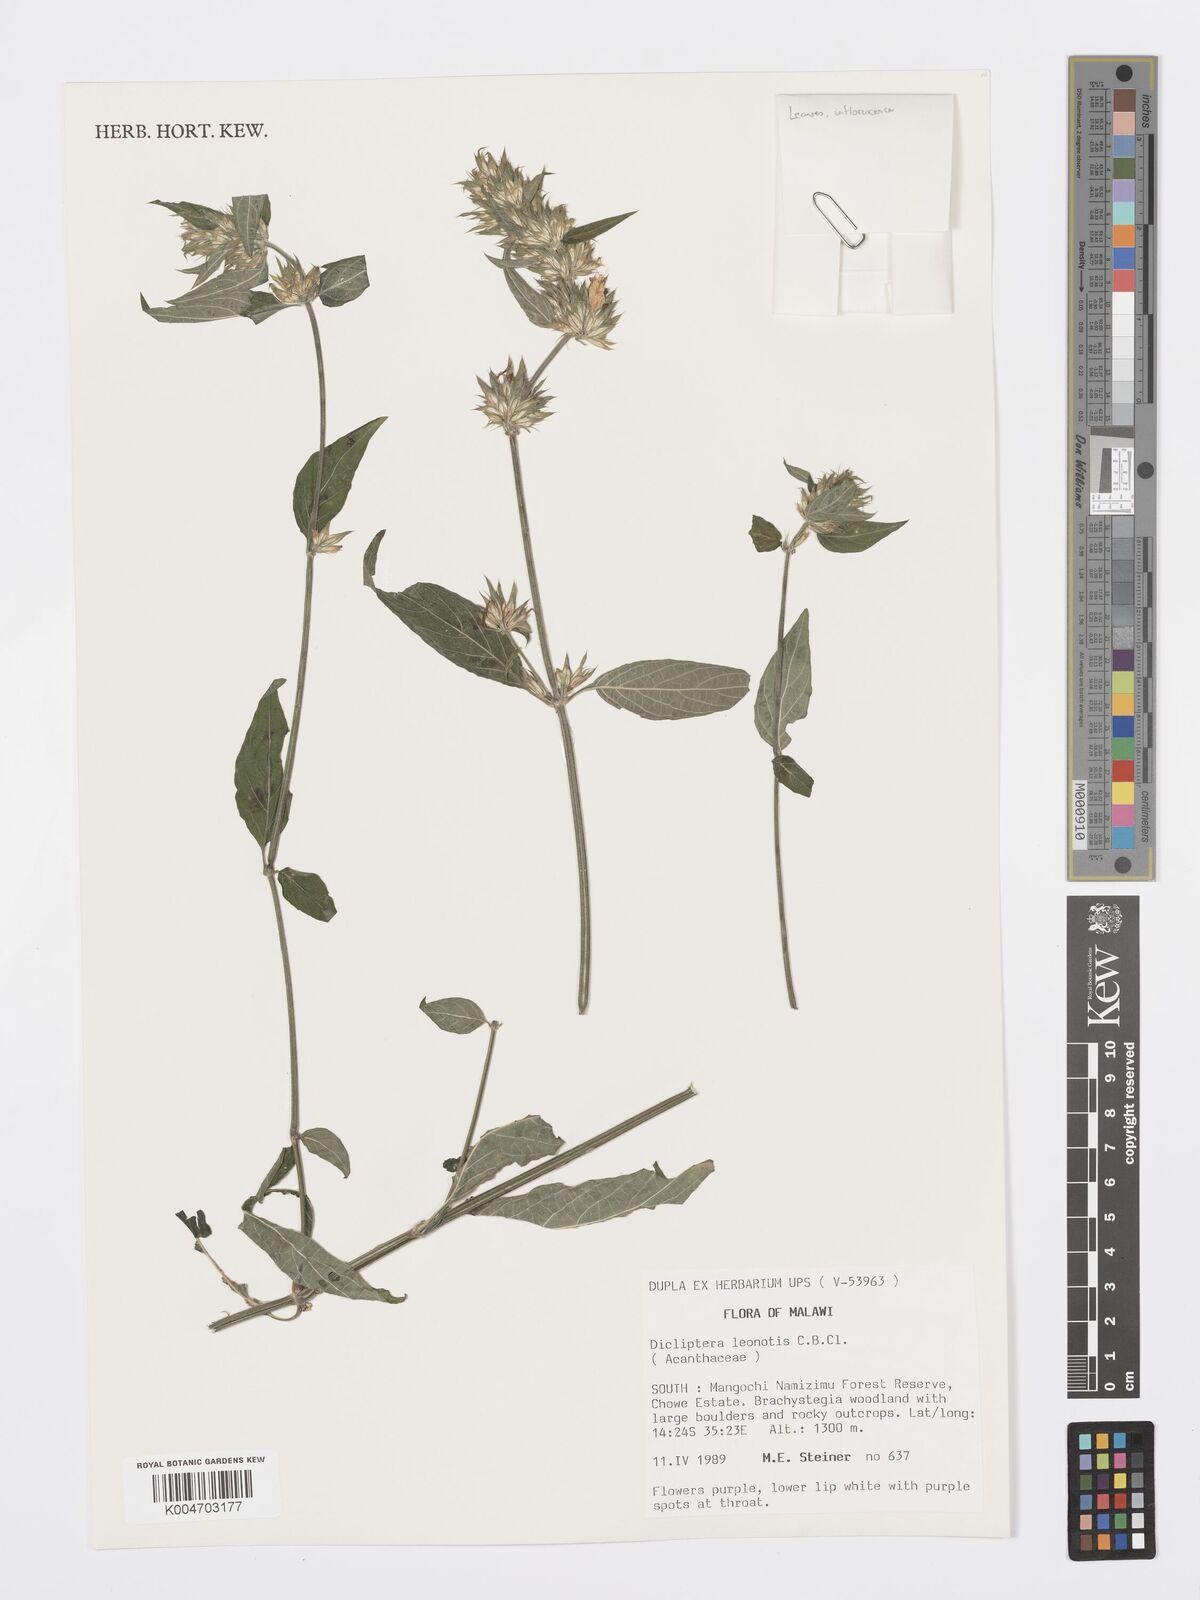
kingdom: Plantae
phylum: Tracheophyta
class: Magnoliopsida
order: Lamiales
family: Acanthaceae
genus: Dicliptera
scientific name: Dicliptera clinopodia
